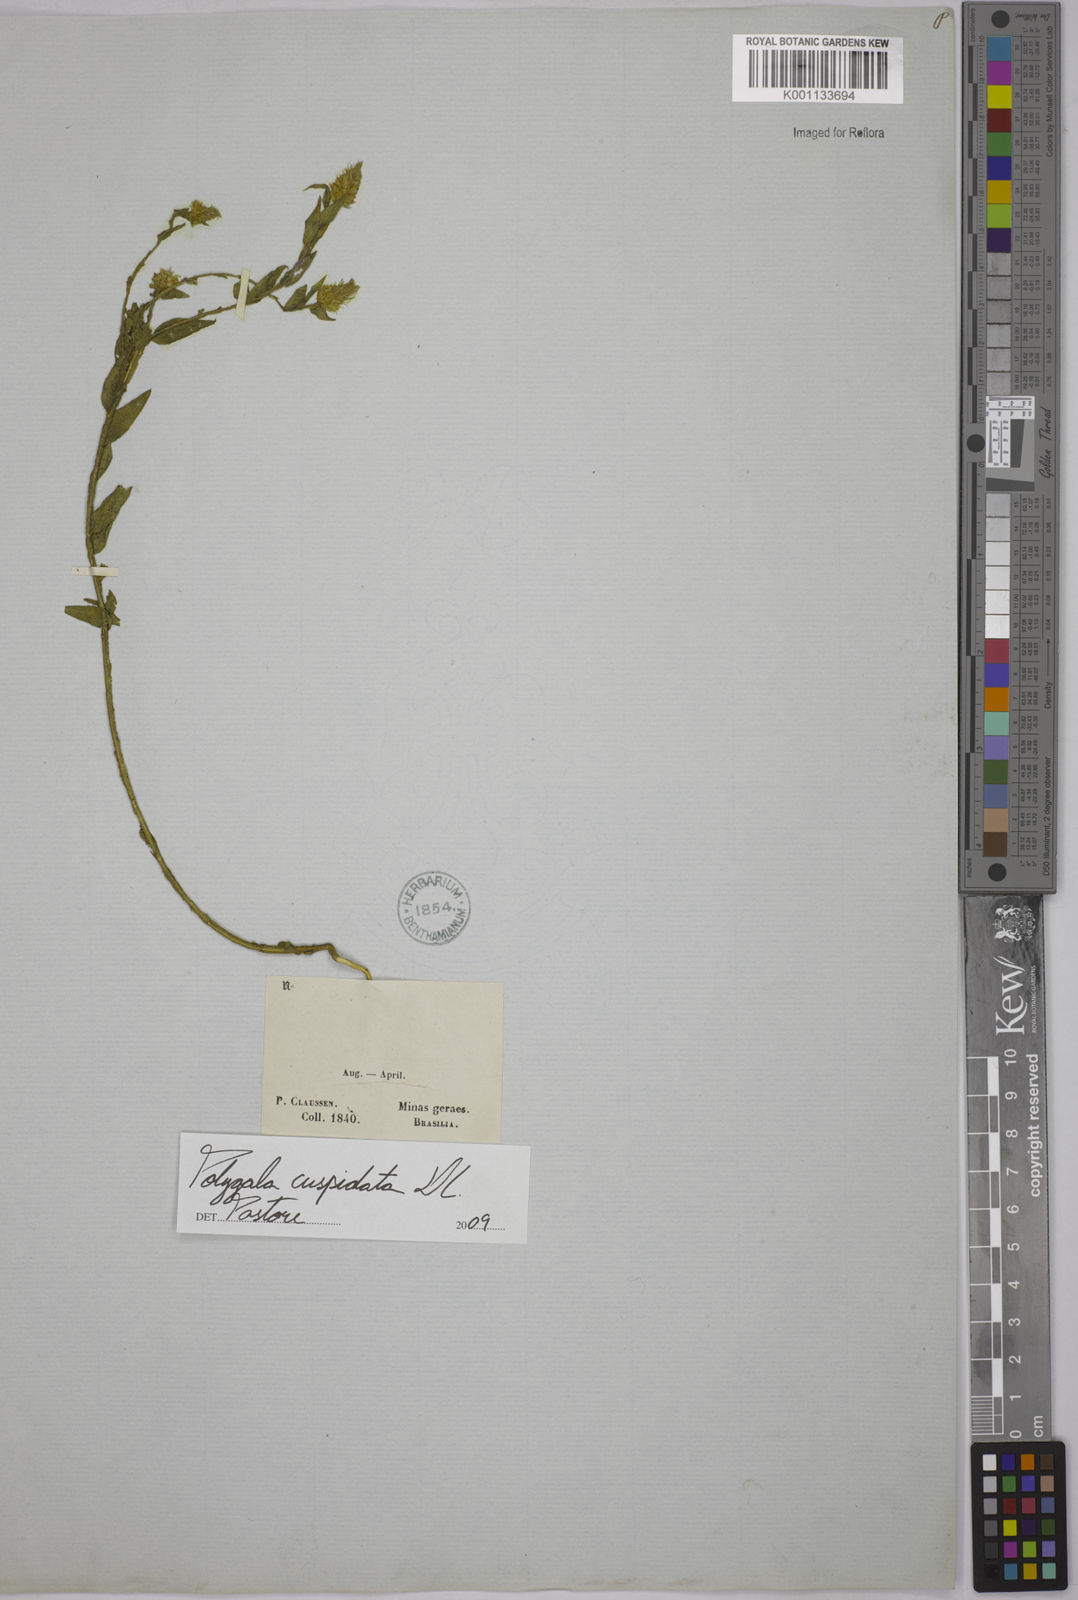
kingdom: Plantae
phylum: Tracheophyta
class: Magnoliopsida
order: Fabales
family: Polygalaceae
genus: Polygala
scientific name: Polygala cuspidata
